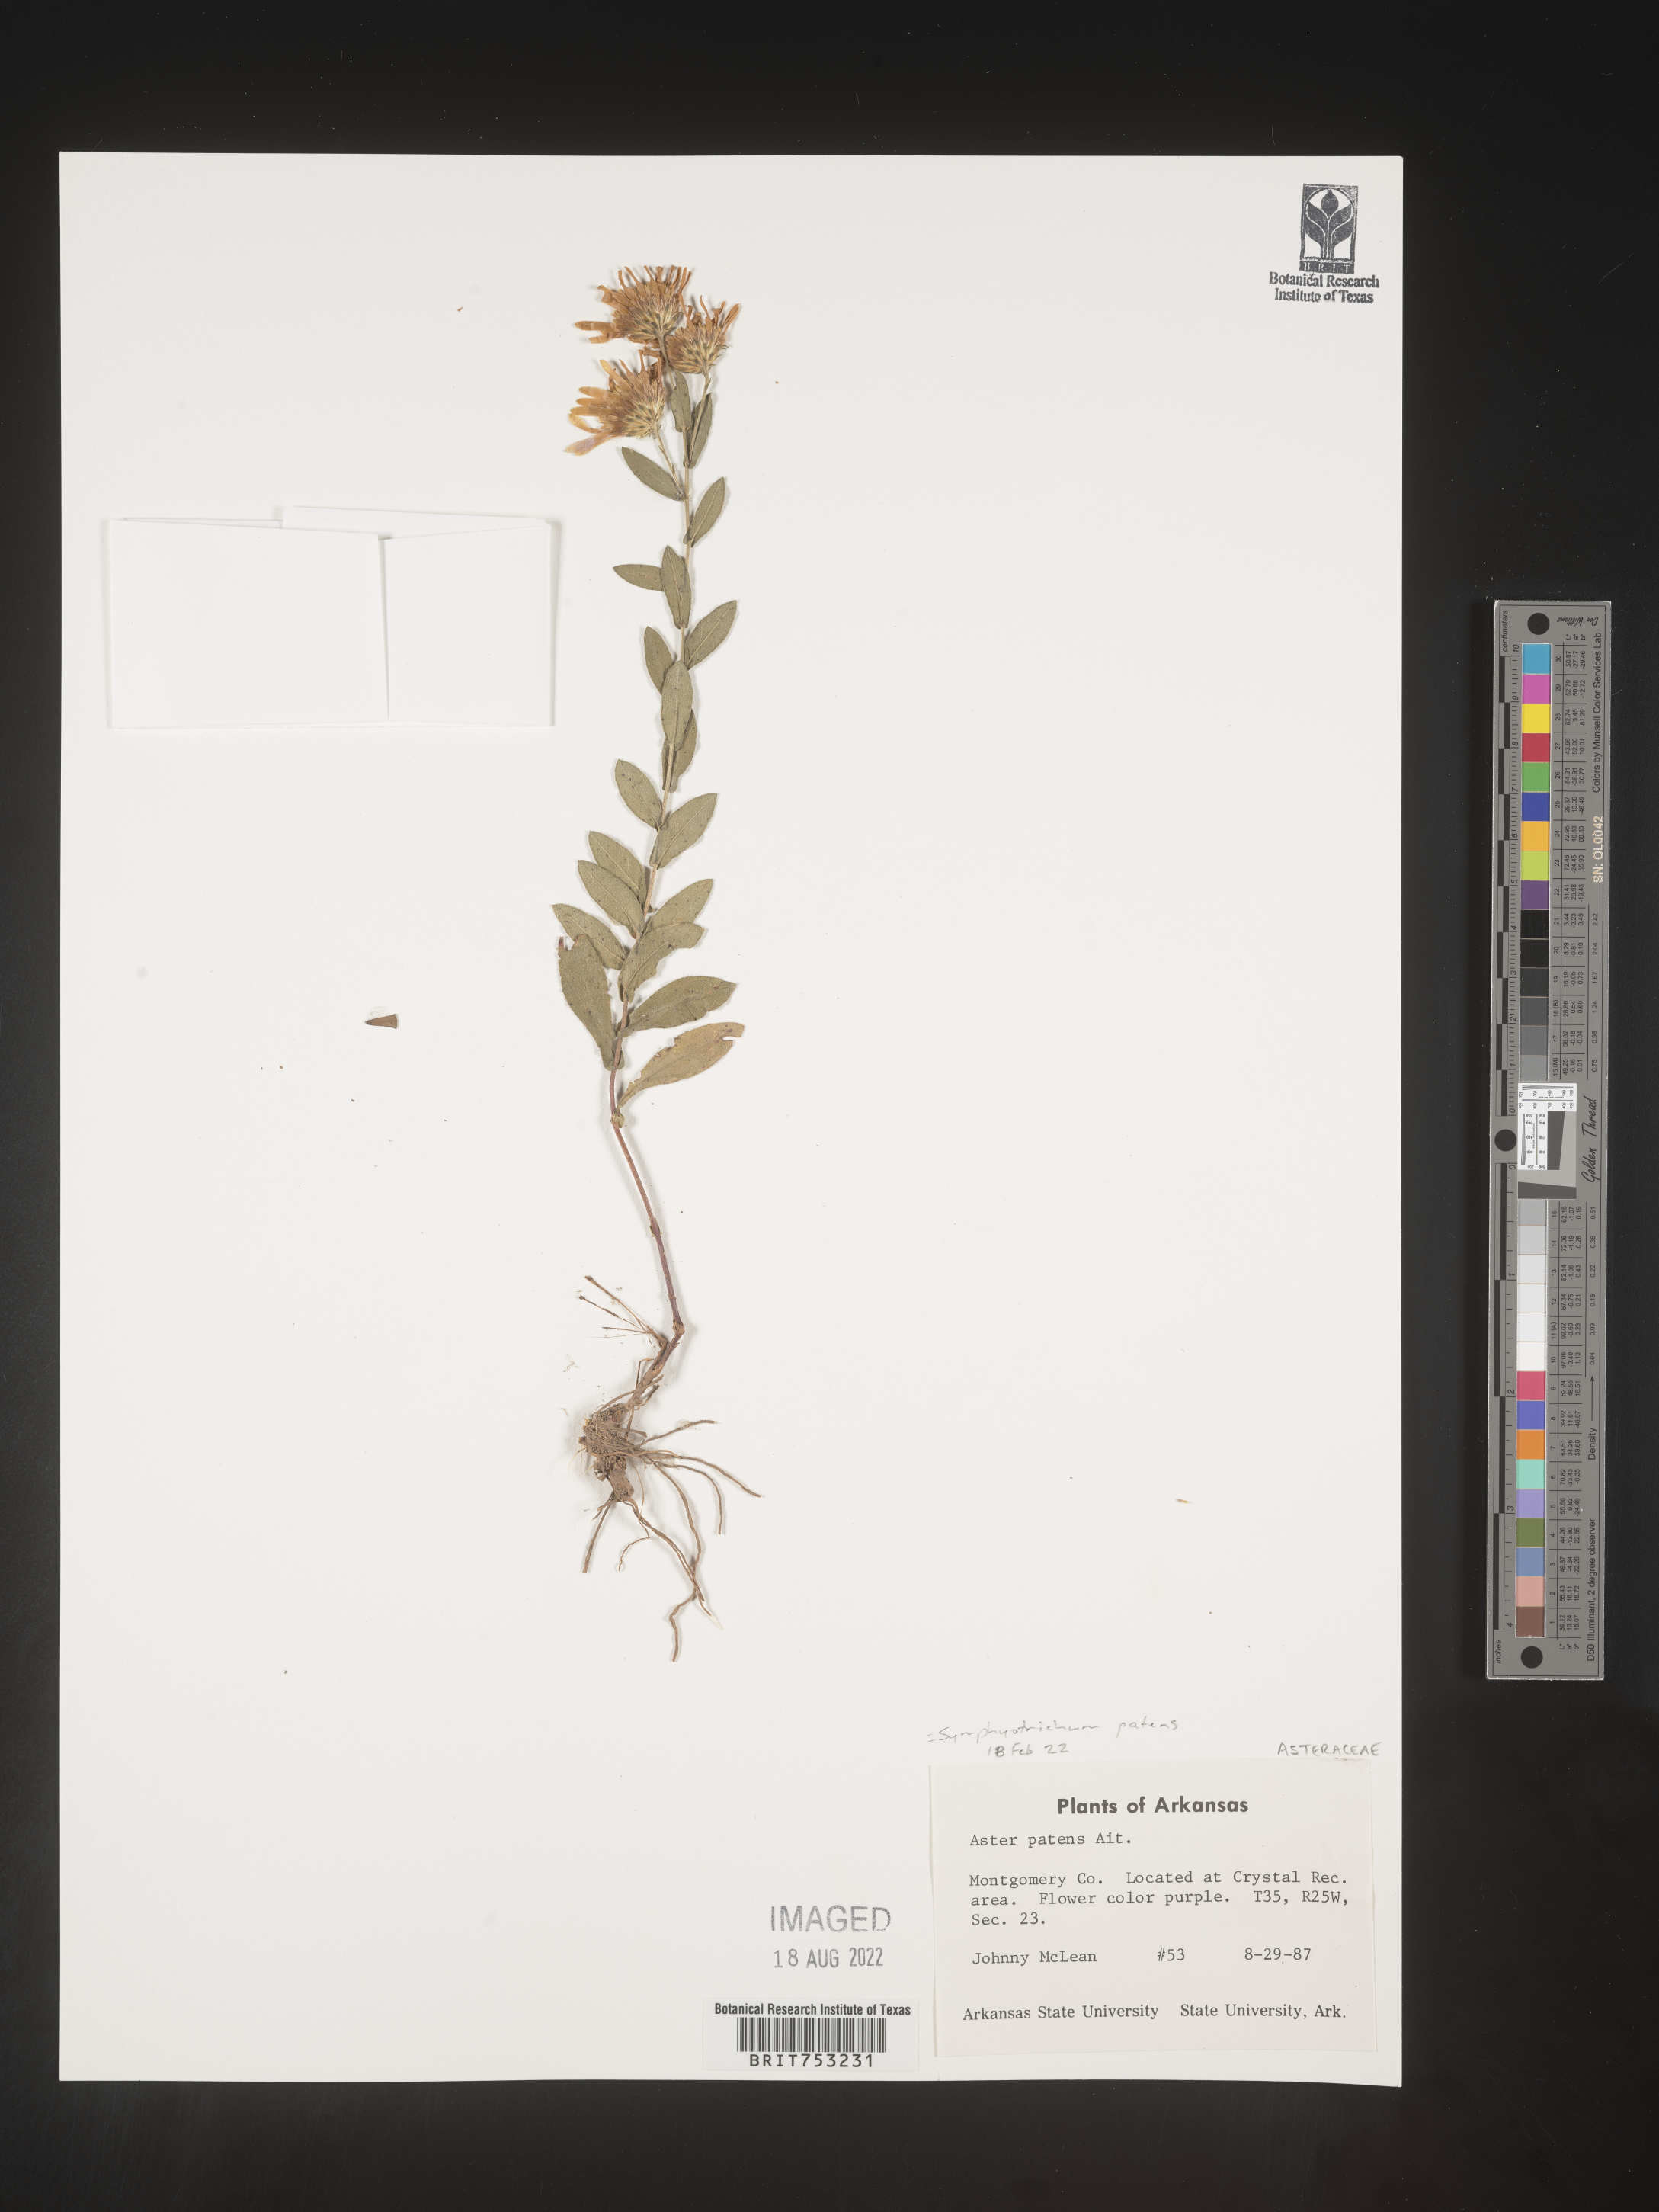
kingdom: Plantae
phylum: Tracheophyta
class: Magnoliopsida
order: Asterales
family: Asteraceae
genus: Symphyotrichum
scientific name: Symphyotrichum patens
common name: Late purple aster
